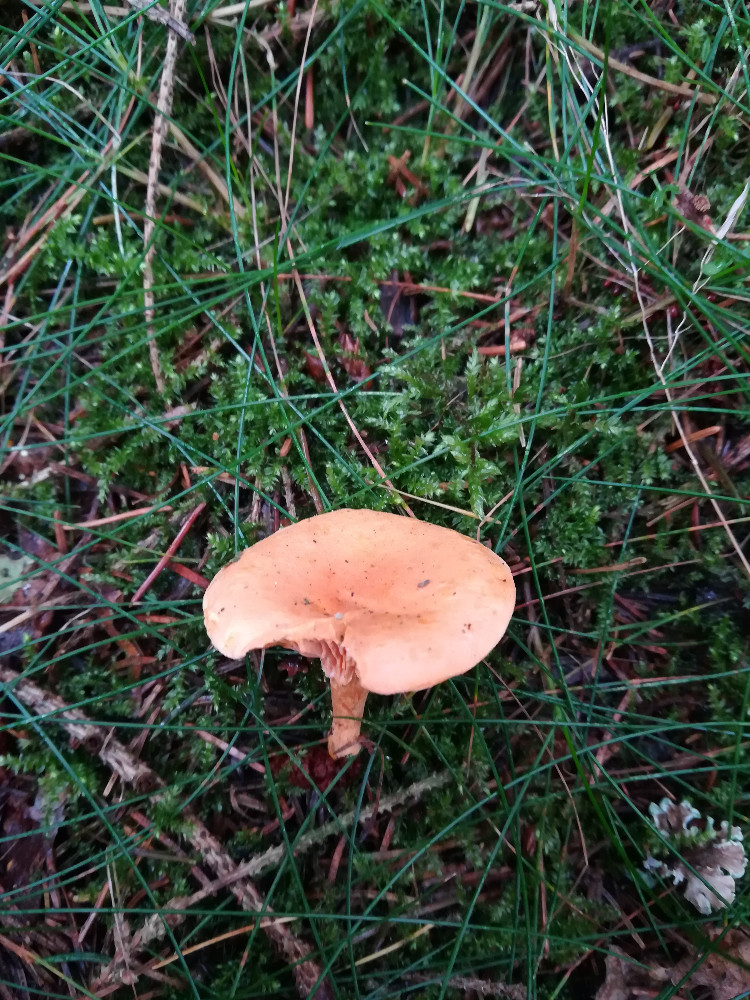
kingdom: Fungi
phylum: Basidiomycota
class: Agaricomycetes
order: Boletales
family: Hygrophoropsidaceae
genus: Hygrophoropsis
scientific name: Hygrophoropsis aurantiaca
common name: almindelig orangekantarel
